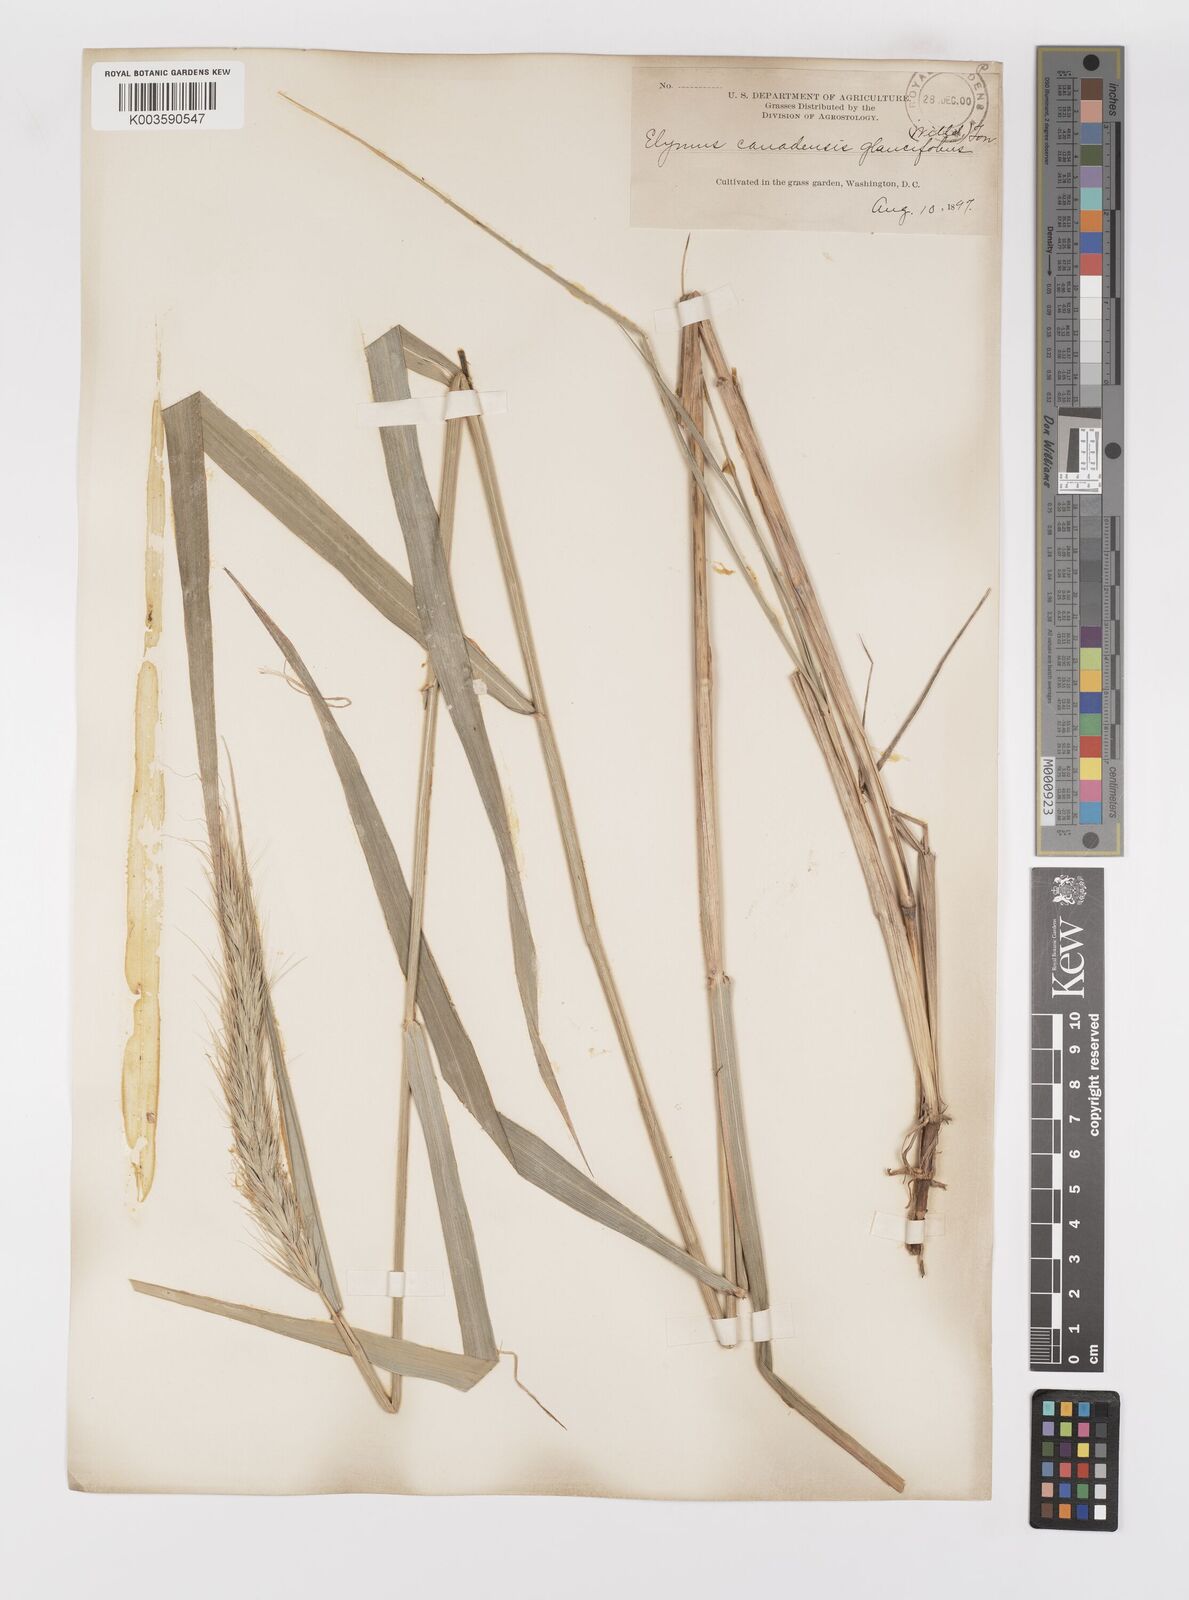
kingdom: Plantae
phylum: Tracheophyta
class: Liliopsida
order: Poales
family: Poaceae
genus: Elymus
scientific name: Elymus canadensis
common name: Canada wild rye
